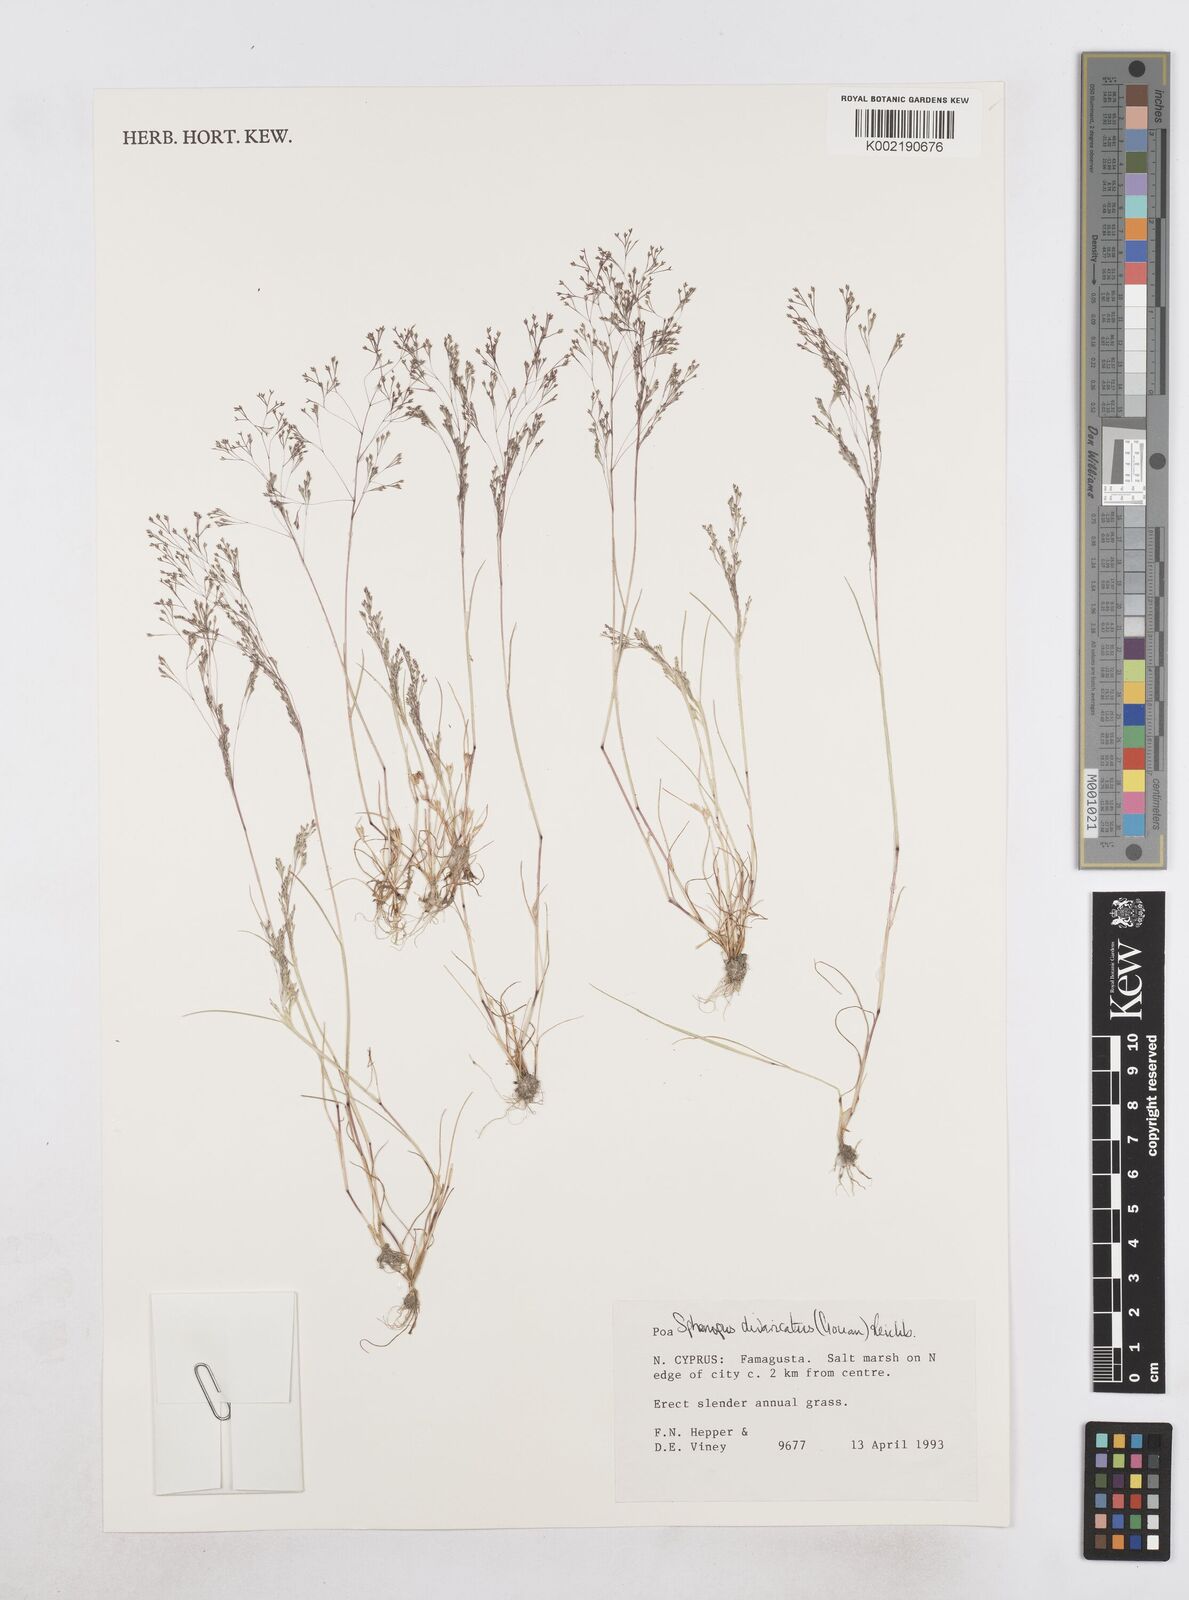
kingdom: Plantae
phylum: Tracheophyta
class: Liliopsida
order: Poales
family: Poaceae
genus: Sphenopus
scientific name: Sphenopus divaricatus
